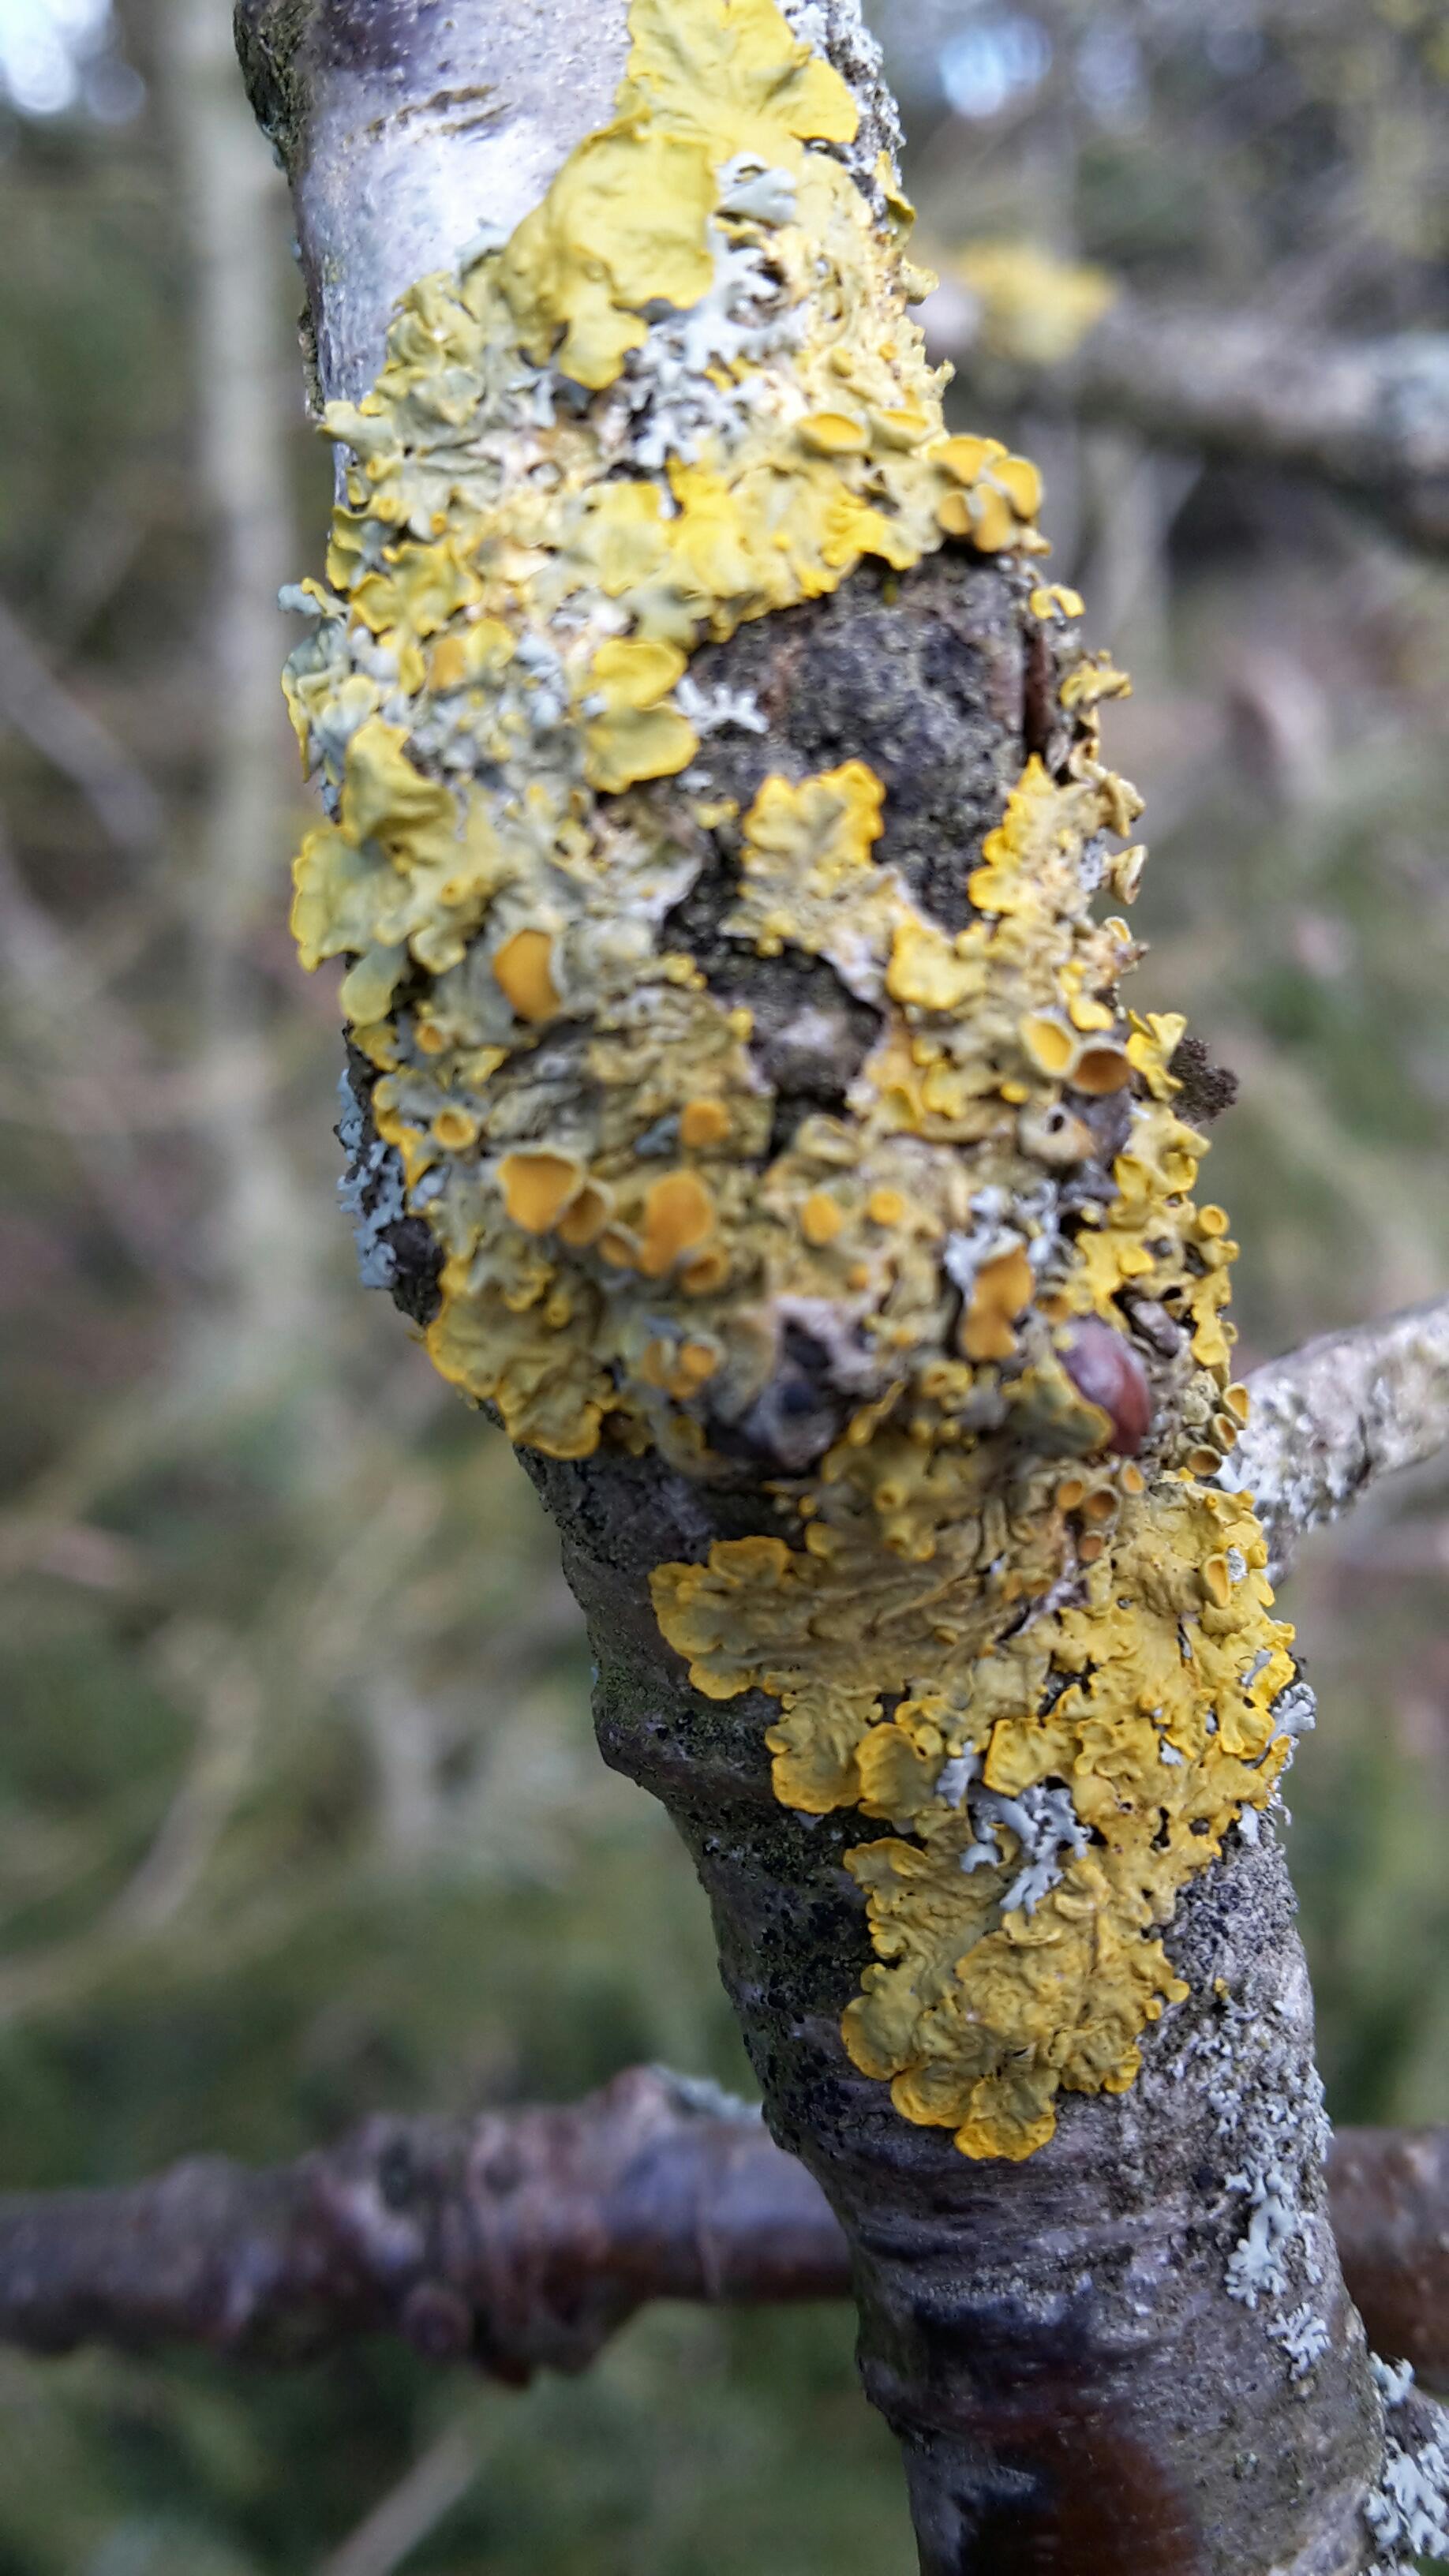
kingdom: Fungi
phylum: Ascomycota
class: Lecanoromycetes
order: Teloschistales
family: Teloschistaceae
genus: Xanthoria
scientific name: Xanthoria parietina
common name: almindelig væggelav
